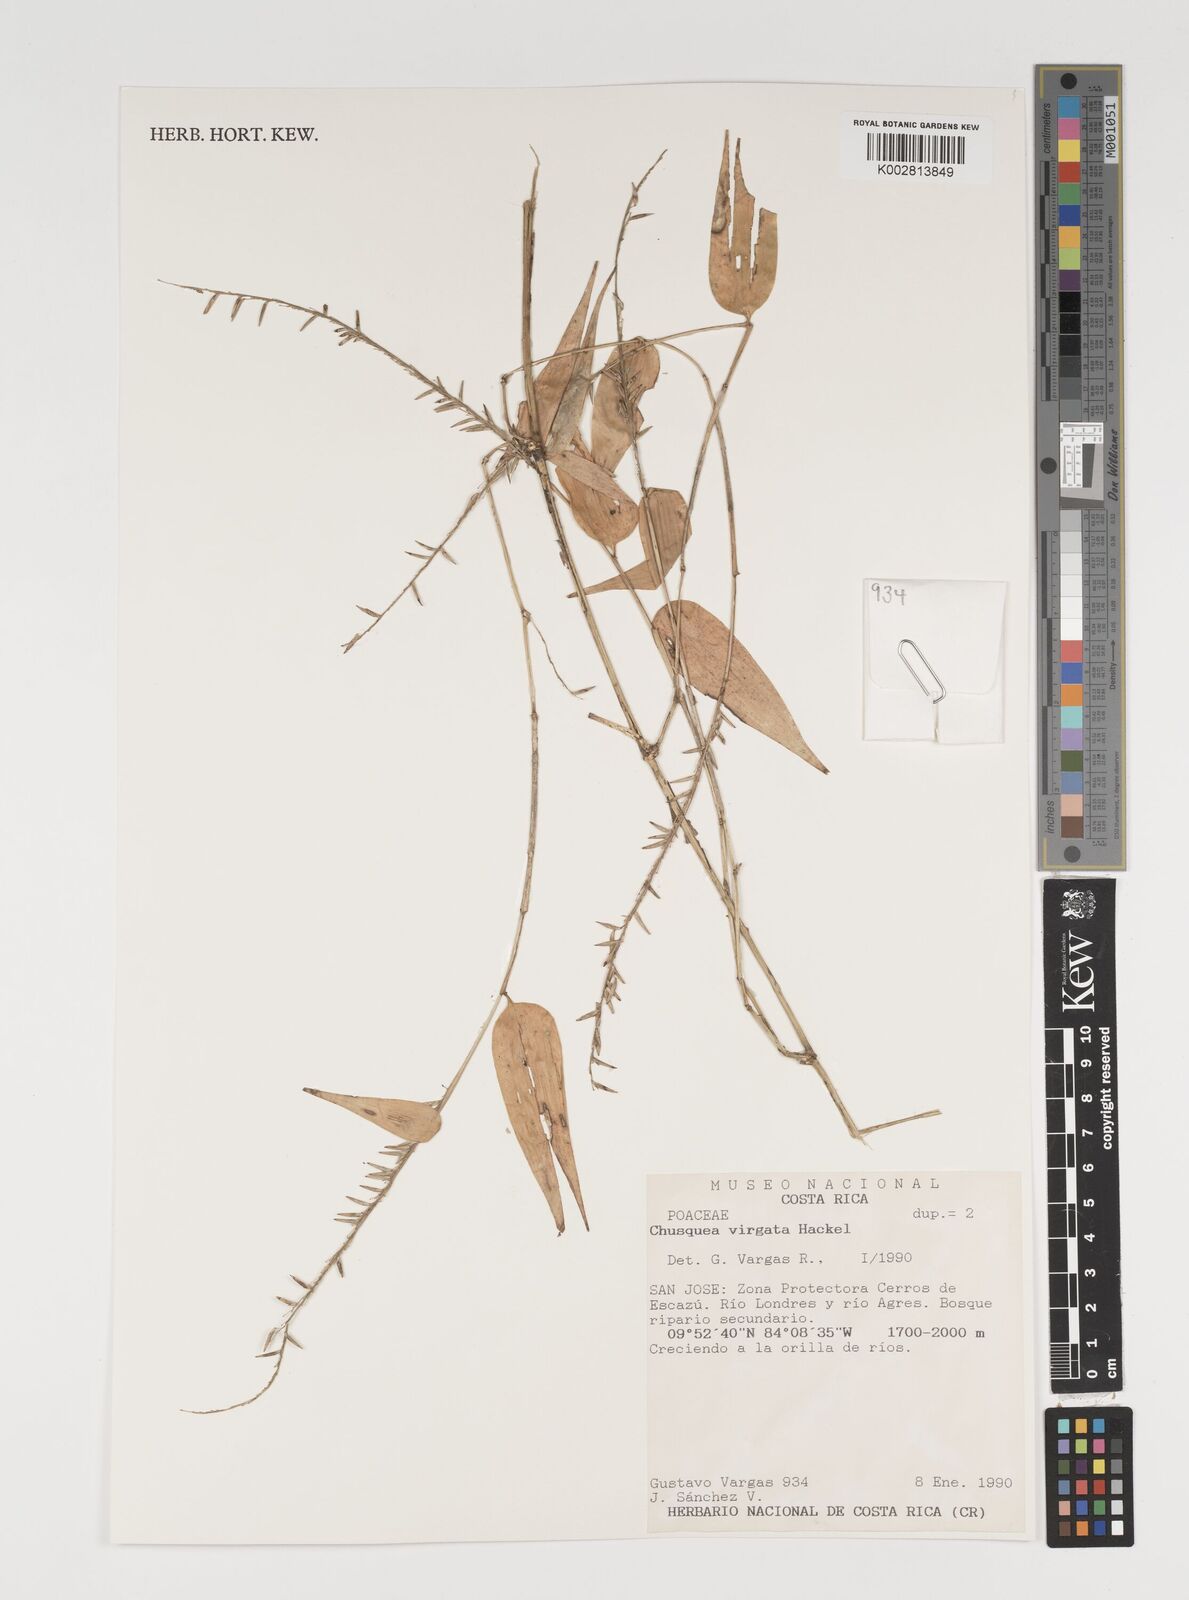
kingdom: Plantae
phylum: Tracheophyta
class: Liliopsida
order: Poales
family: Poaceae
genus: Chusquea
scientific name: Chusquea virgata
